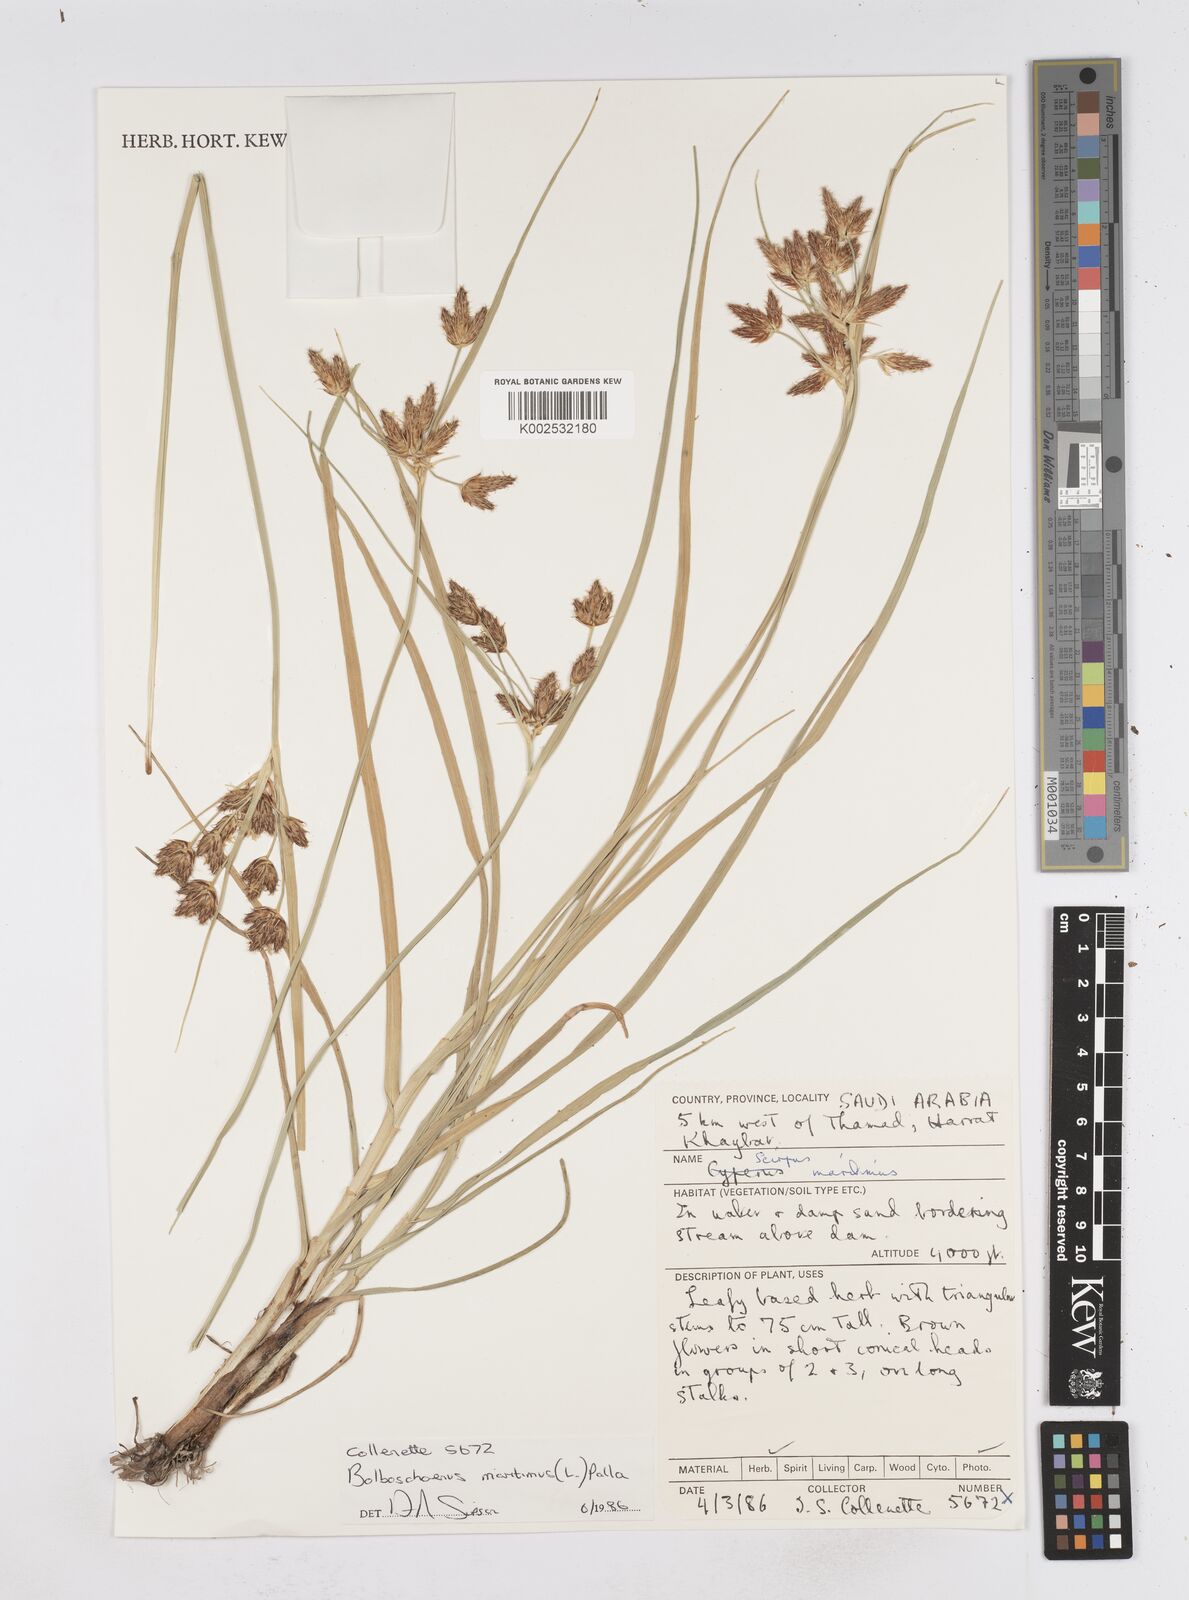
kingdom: Plantae
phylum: Tracheophyta
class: Liliopsida
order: Poales
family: Cyperaceae
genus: Bolboschoenus
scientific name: Bolboschoenus maritimus
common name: Sea club-rush
